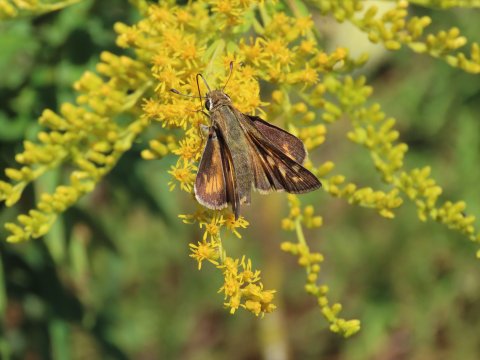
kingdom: Animalia
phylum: Arthropoda
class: Insecta
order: Lepidoptera
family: Hesperiidae
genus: Atalopedes
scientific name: Atalopedes campestris
